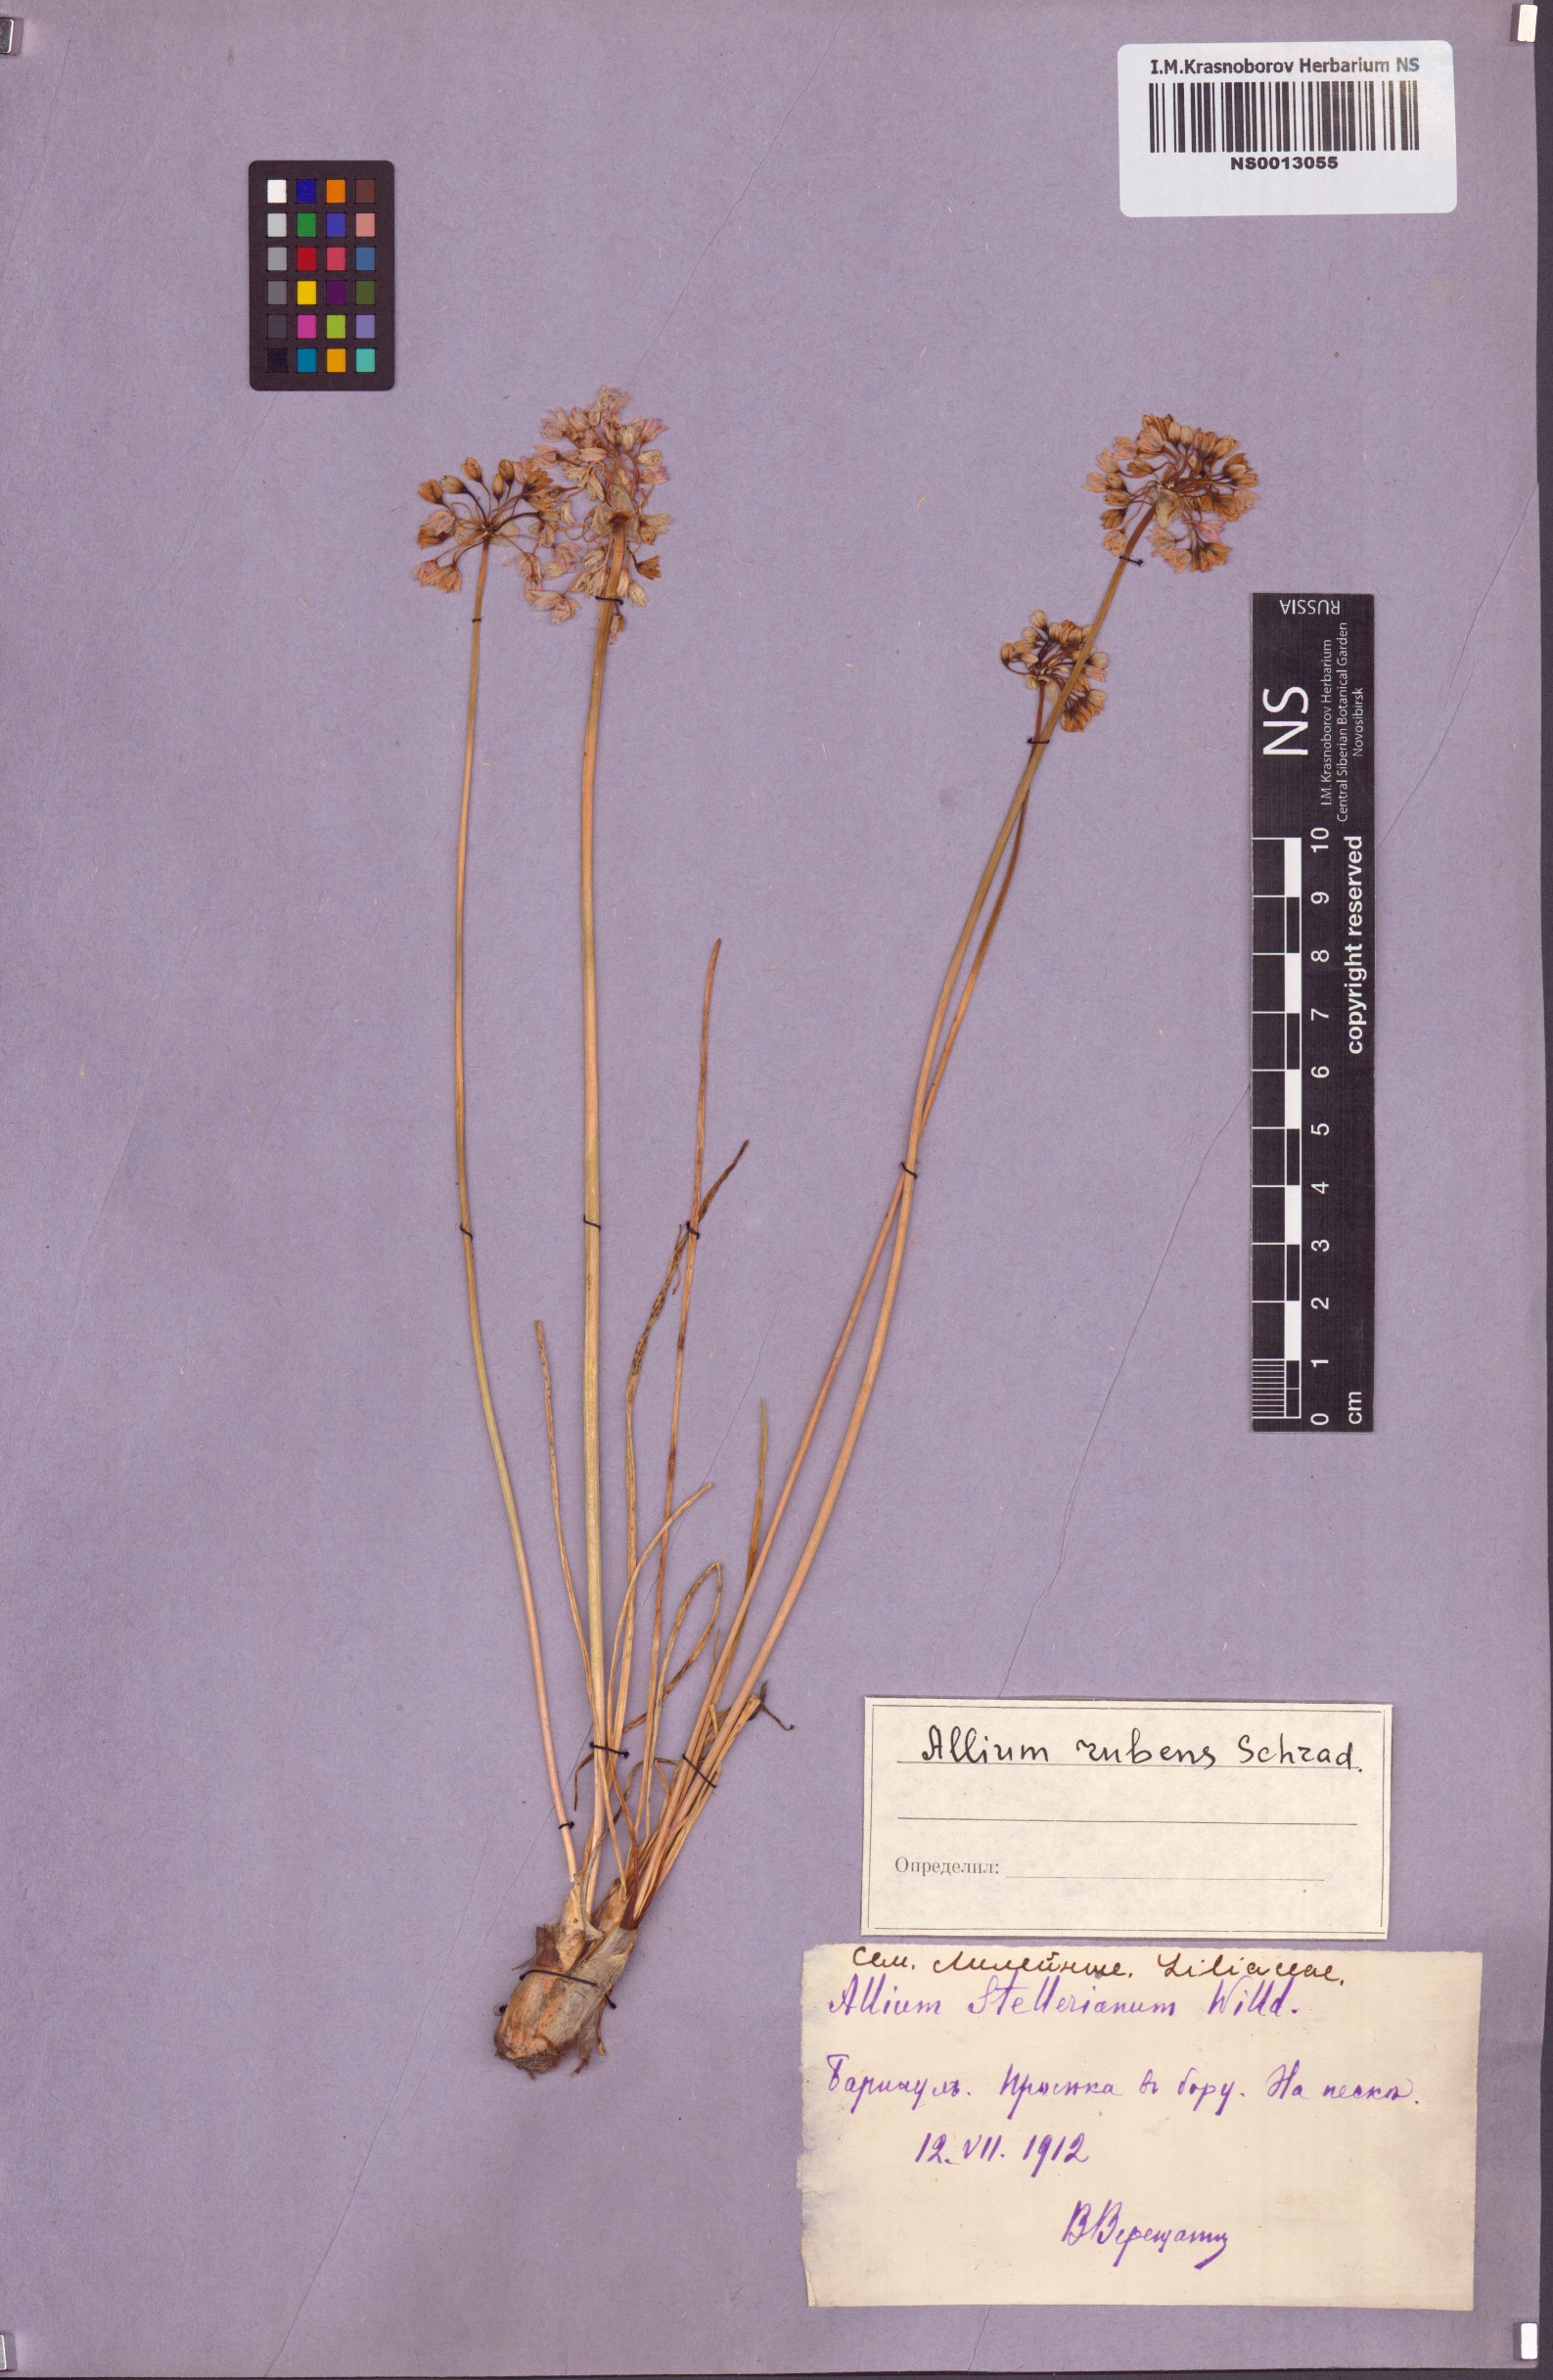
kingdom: Plantae
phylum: Tracheophyta
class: Liliopsida
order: Asparagales
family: Amaryllidaceae
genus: Allium
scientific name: Allium rubens
